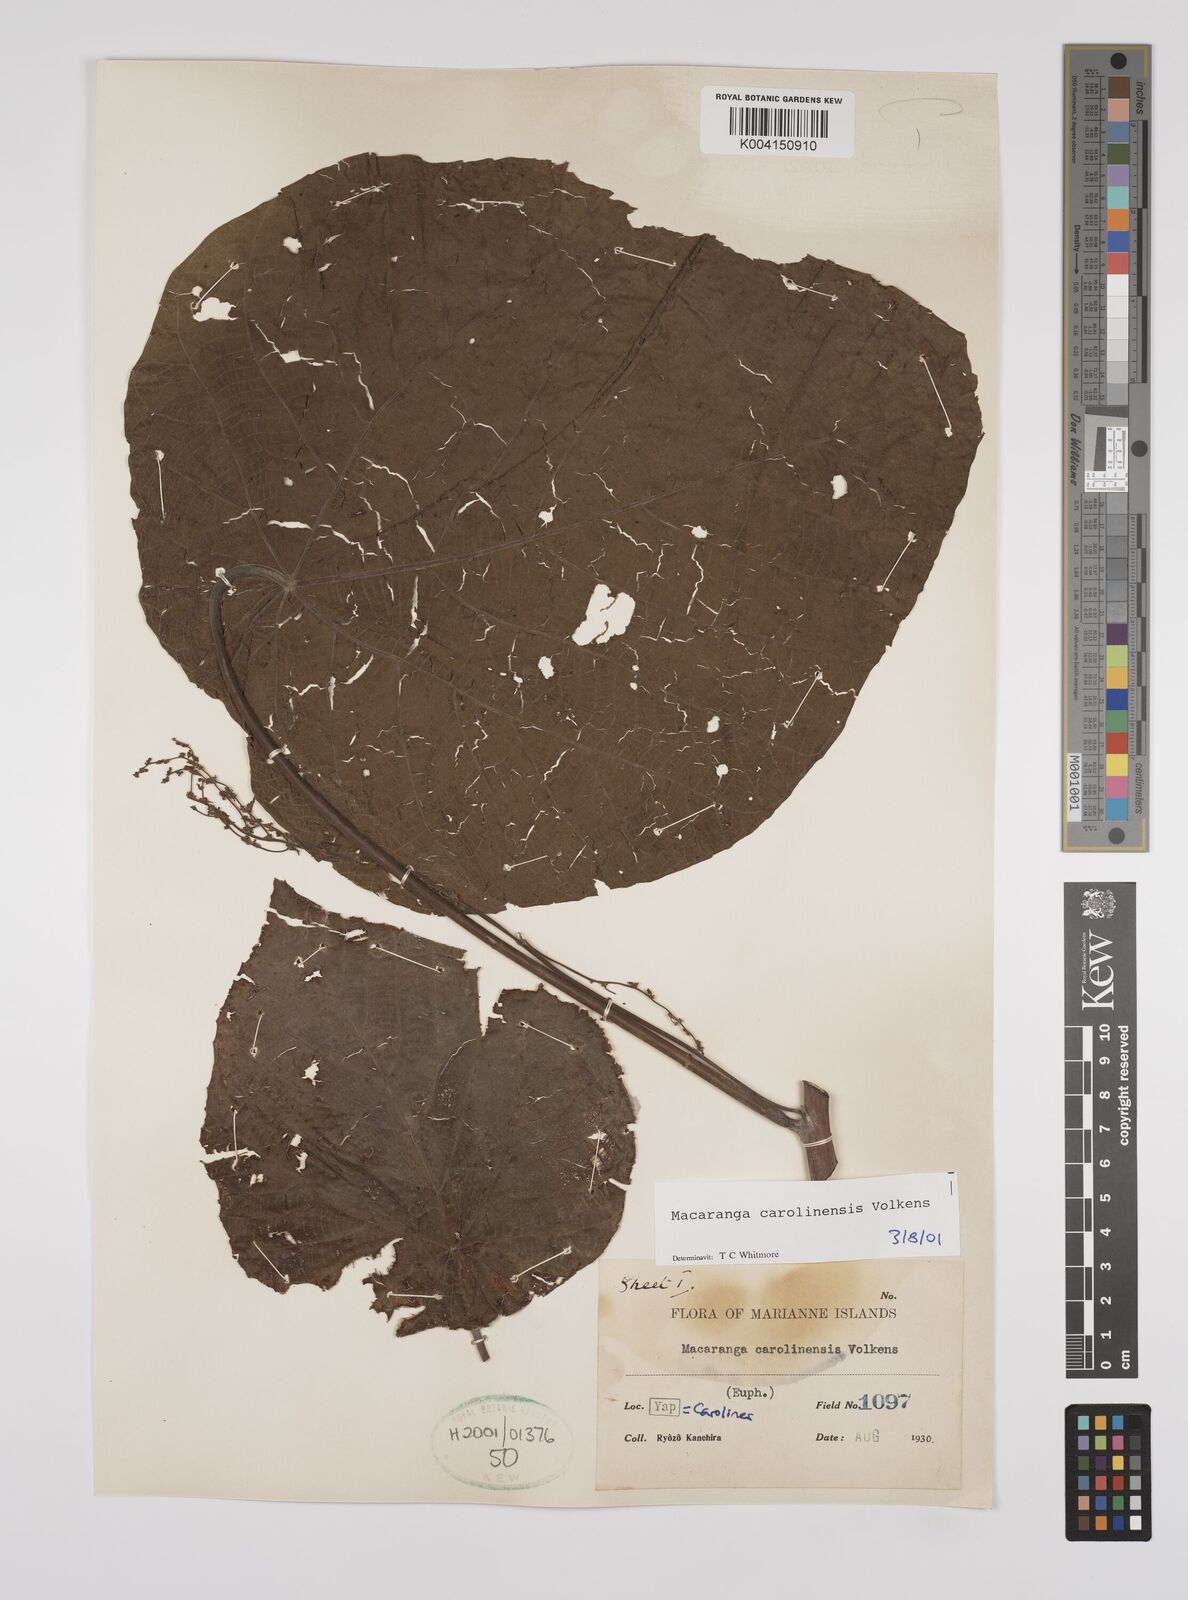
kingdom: Plantae
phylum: Tracheophyta
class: Magnoliopsida
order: Malpighiales
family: Euphorbiaceae
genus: Macaranga
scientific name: Macaranga carolinensis
